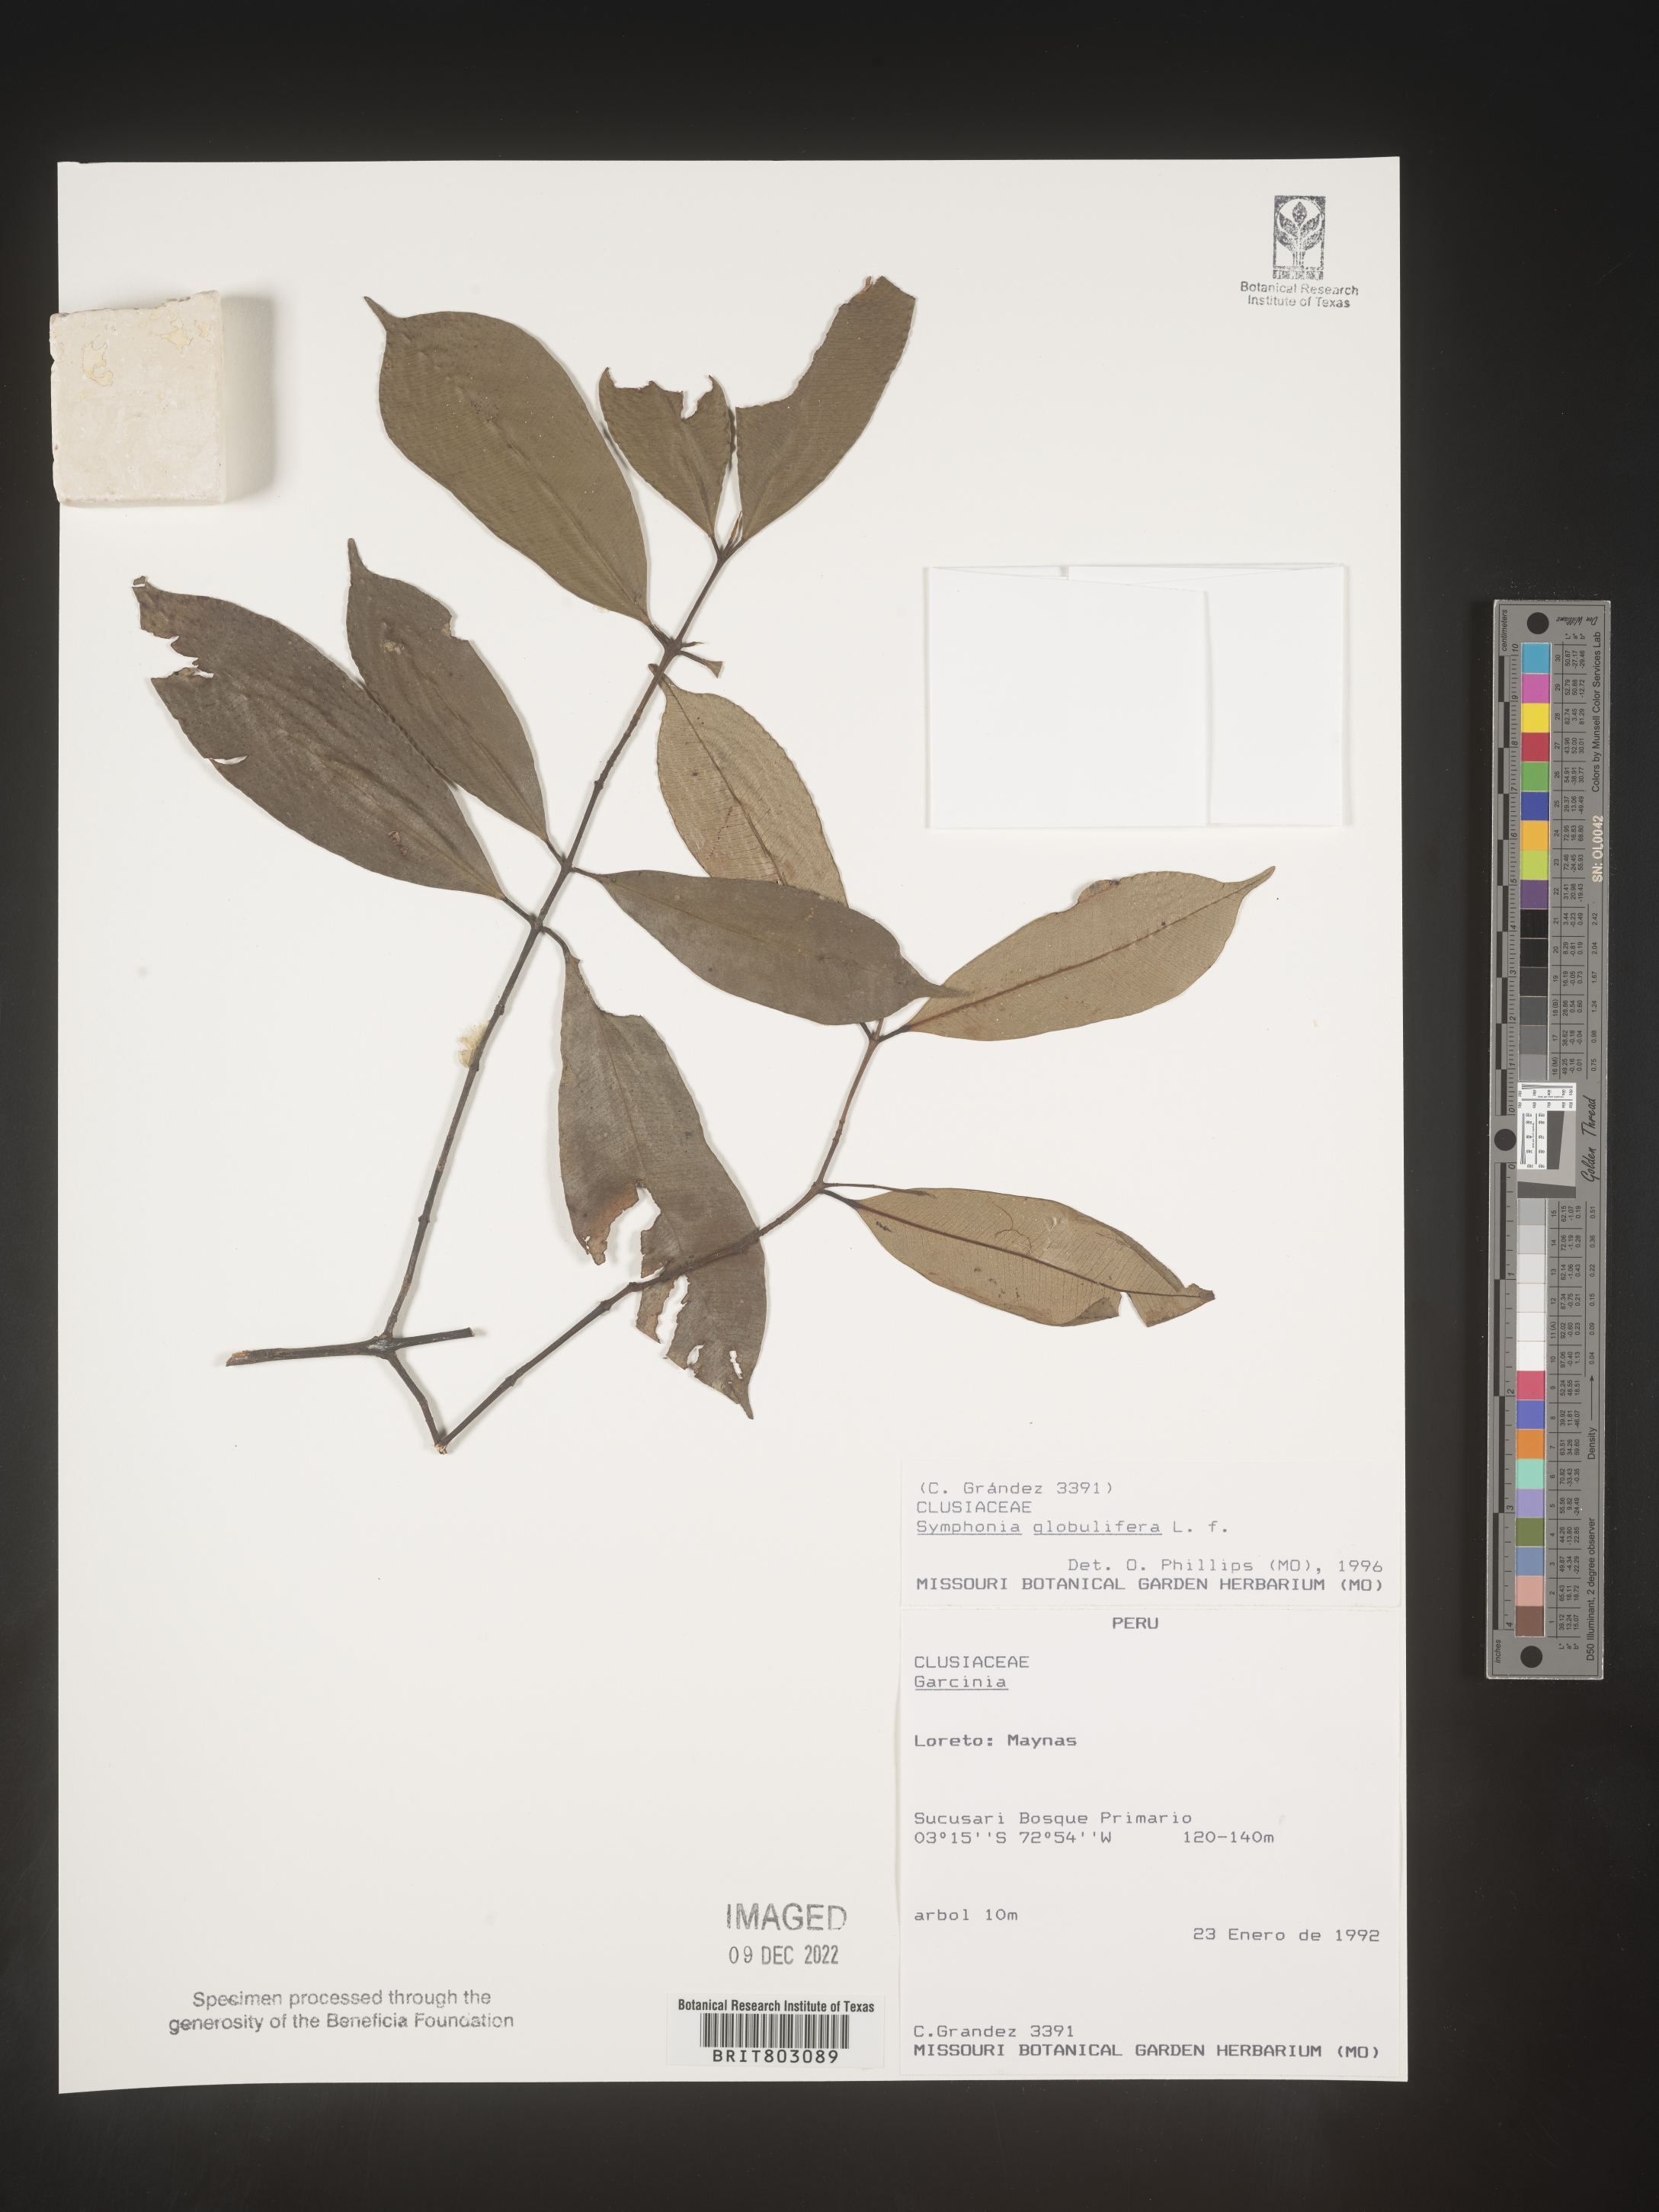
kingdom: Plantae
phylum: Tracheophyta
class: Magnoliopsida
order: Malpighiales
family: Clusiaceae
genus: Symphonia
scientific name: Symphonia
